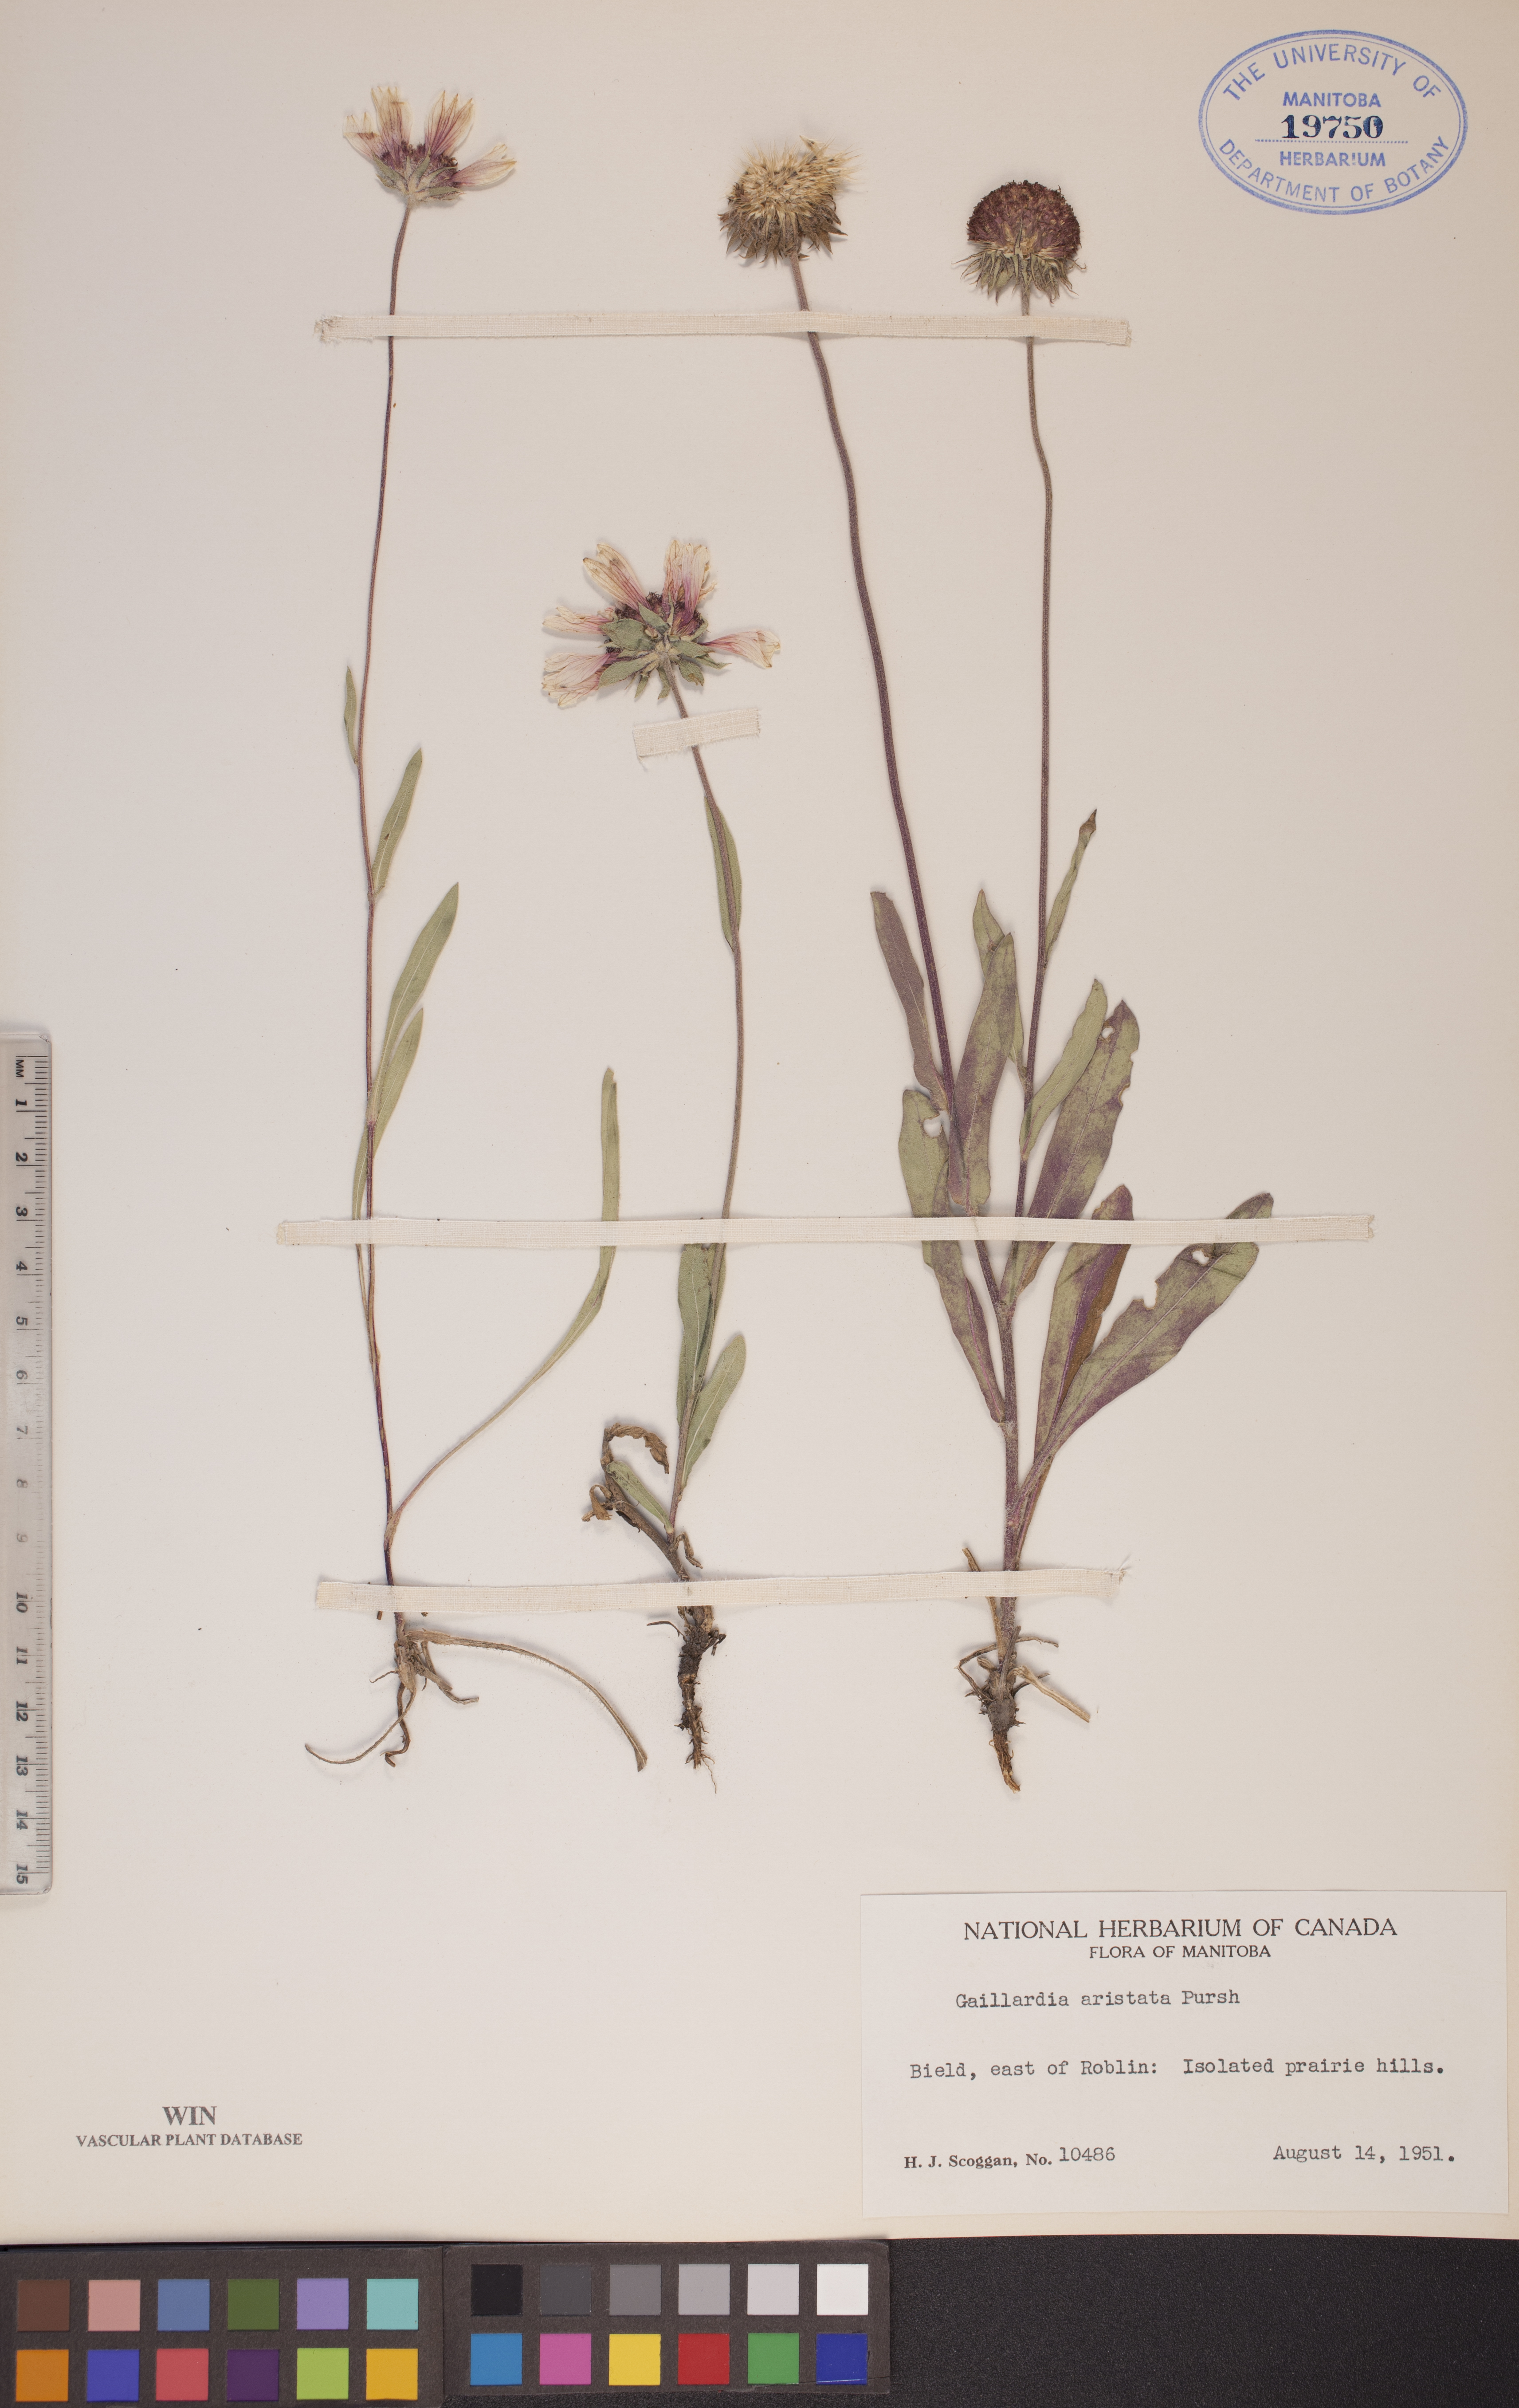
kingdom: Plantae
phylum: Tracheophyta
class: Magnoliopsida
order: Asterales
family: Asteraceae
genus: Gaillardia
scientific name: Gaillardia aristata
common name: Blanket-flower
